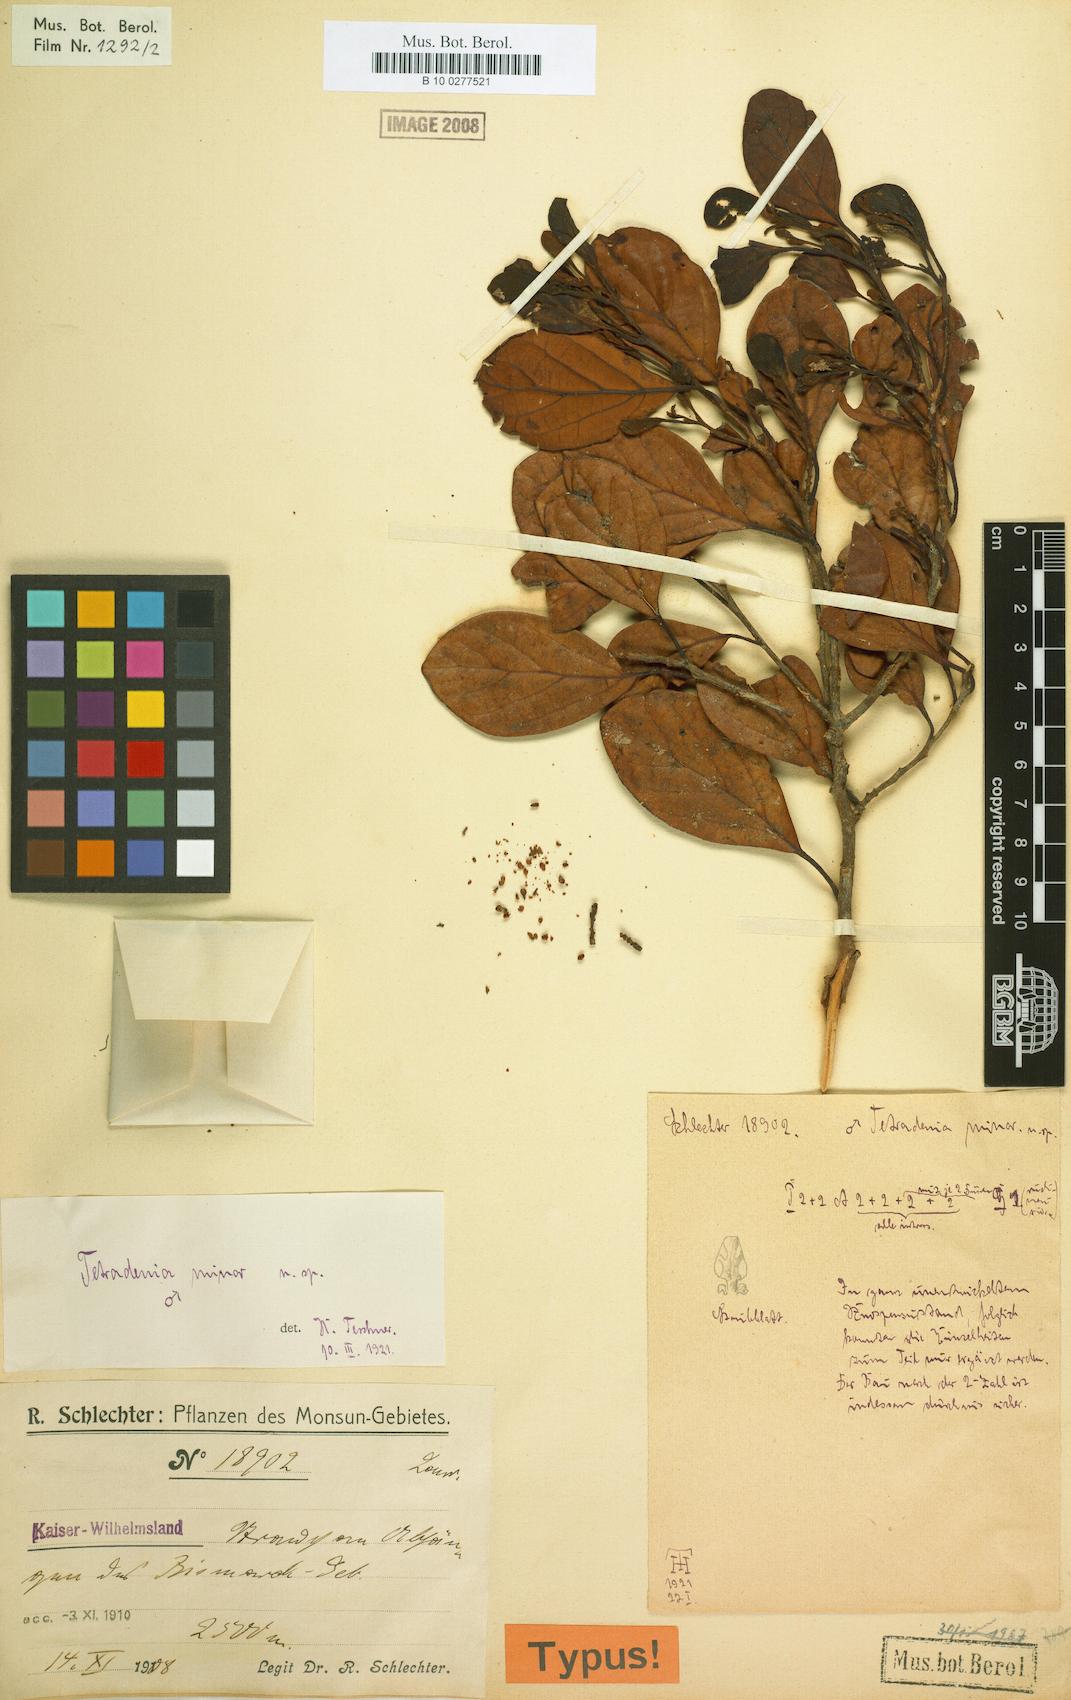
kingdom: Plantae
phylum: Tracheophyta
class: Magnoliopsida
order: Laurales
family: Lauraceae
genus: Neolitsea
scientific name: Neolitsea minor
